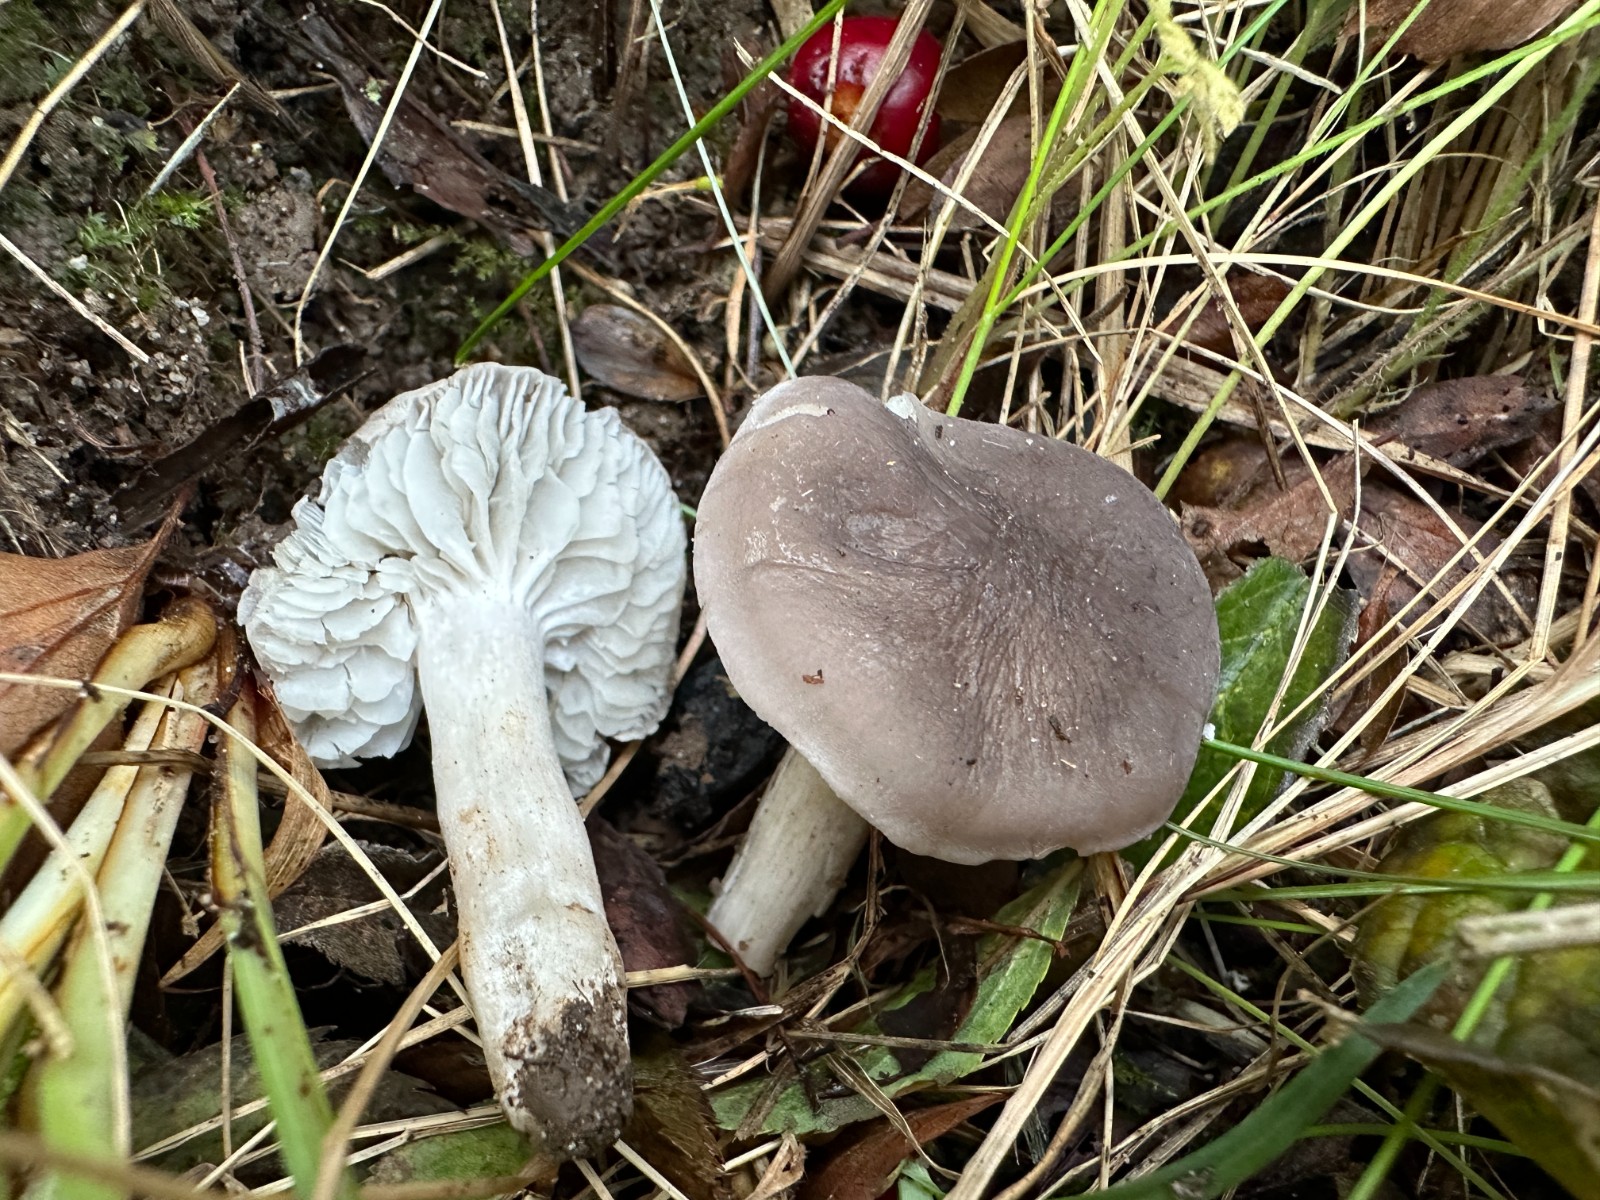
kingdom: Fungi
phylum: Basidiomycota
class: Agaricomycetes
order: Agaricales
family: Tricholomataceae
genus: Dermoloma
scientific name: Dermoloma cuneifolium
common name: eng-nonnehat
